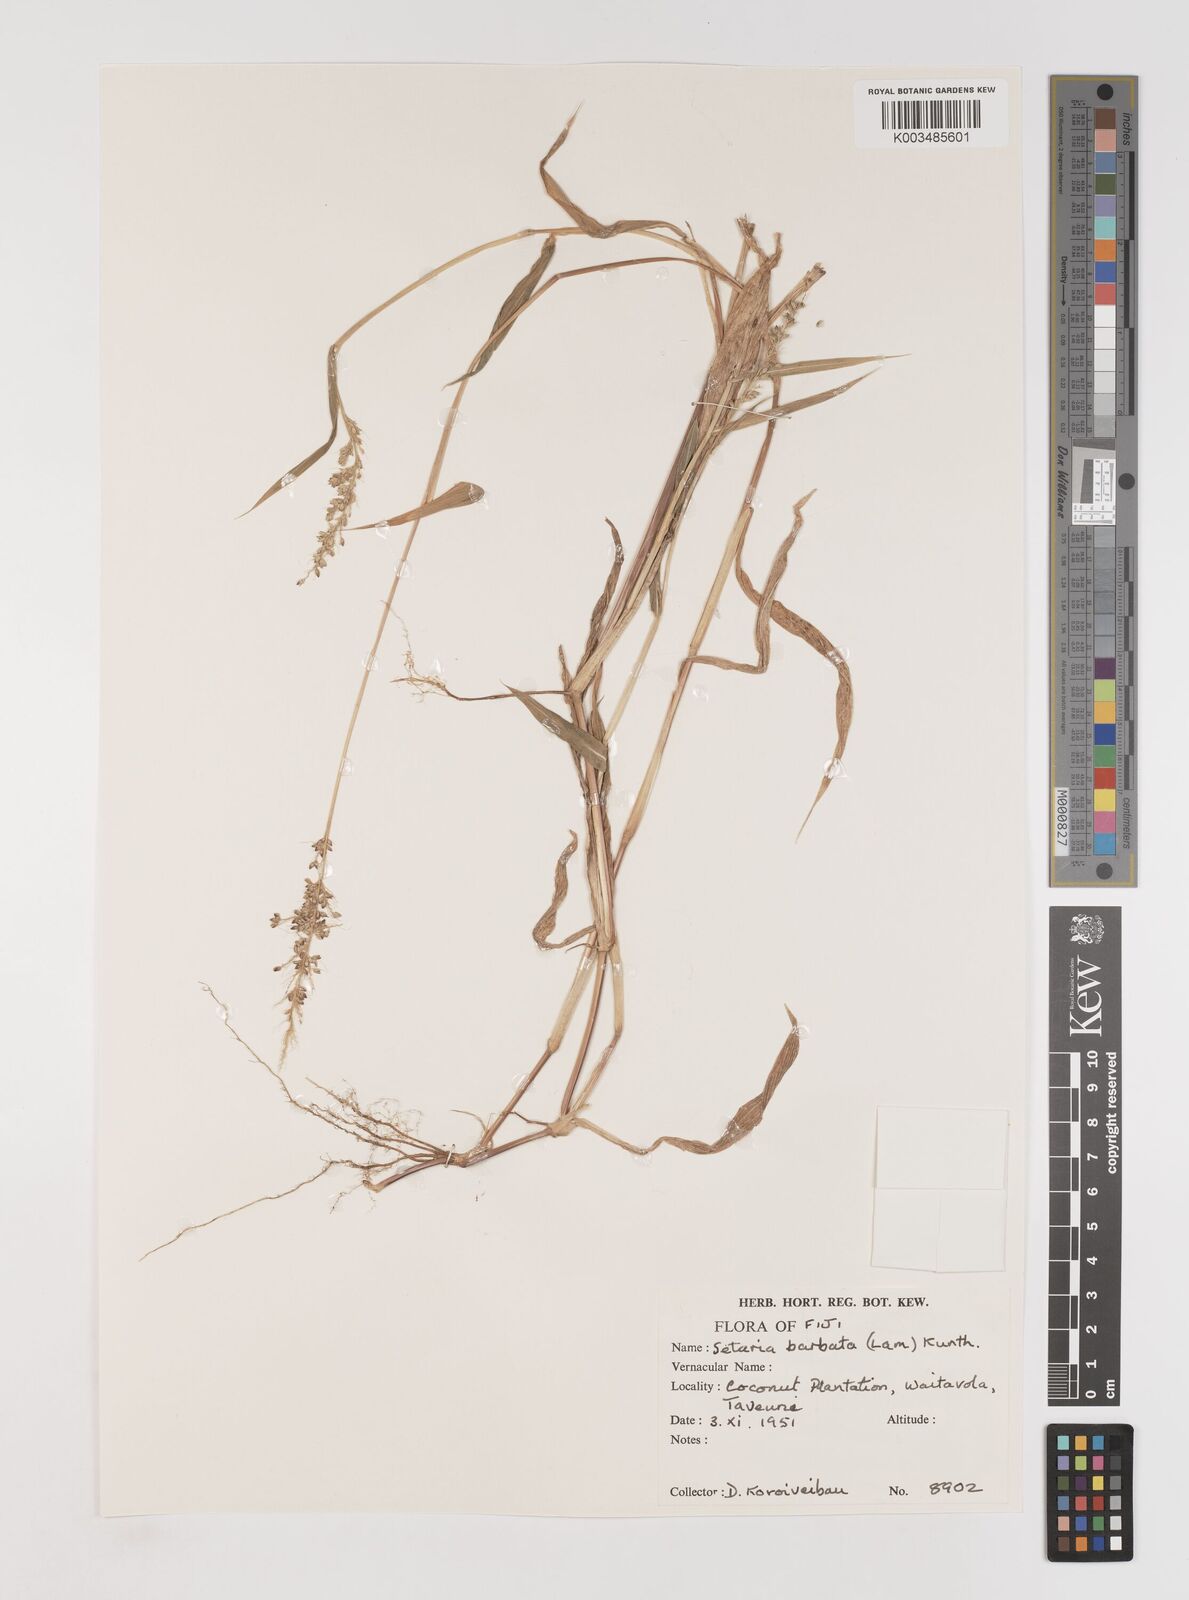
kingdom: Plantae
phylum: Tracheophyta
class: Liliopsida
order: Poales
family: Poaceae
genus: Setaria
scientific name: Setaria barbata
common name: East indian bristlegrass
